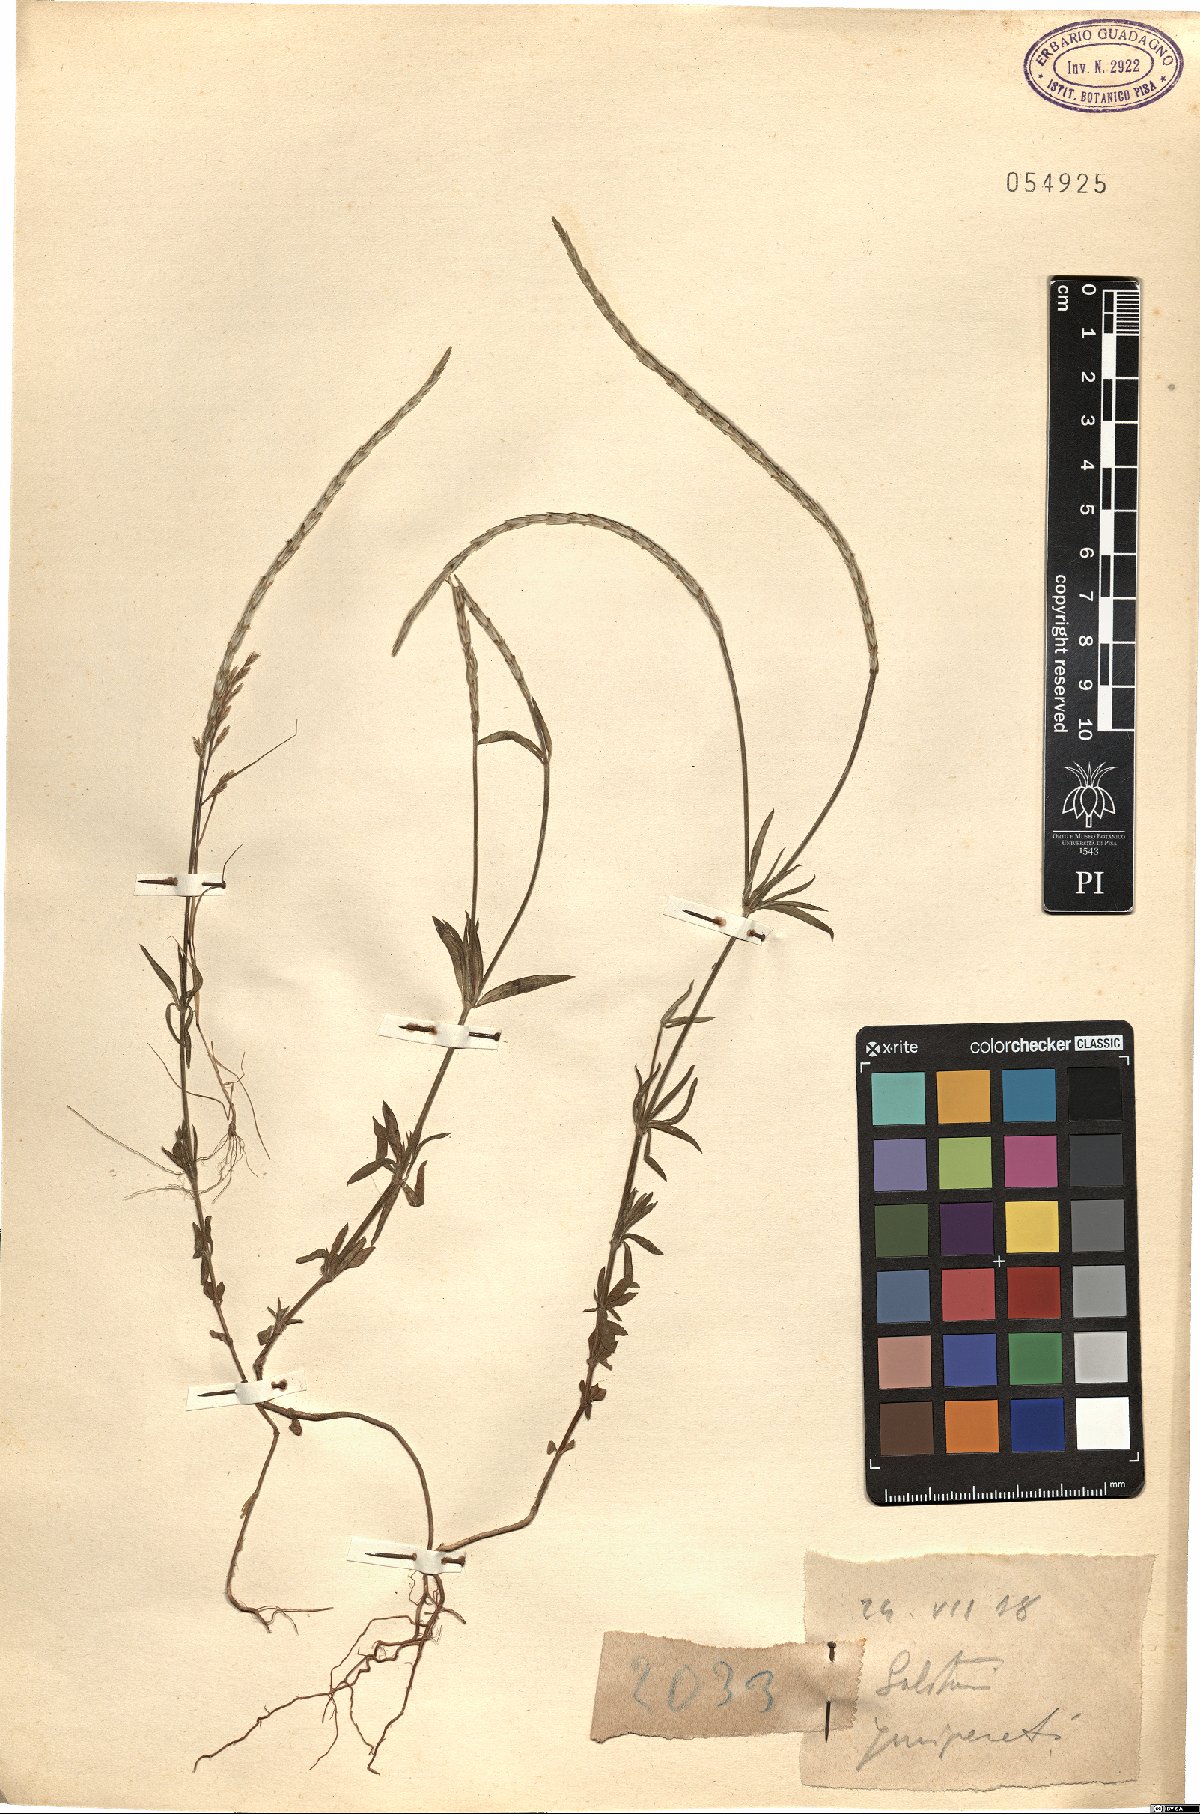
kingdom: Plantae
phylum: Tracheophyta
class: Magnoliopsida
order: Gentianales
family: Rubiaceae
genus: Crucianella
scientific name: Crucianella
